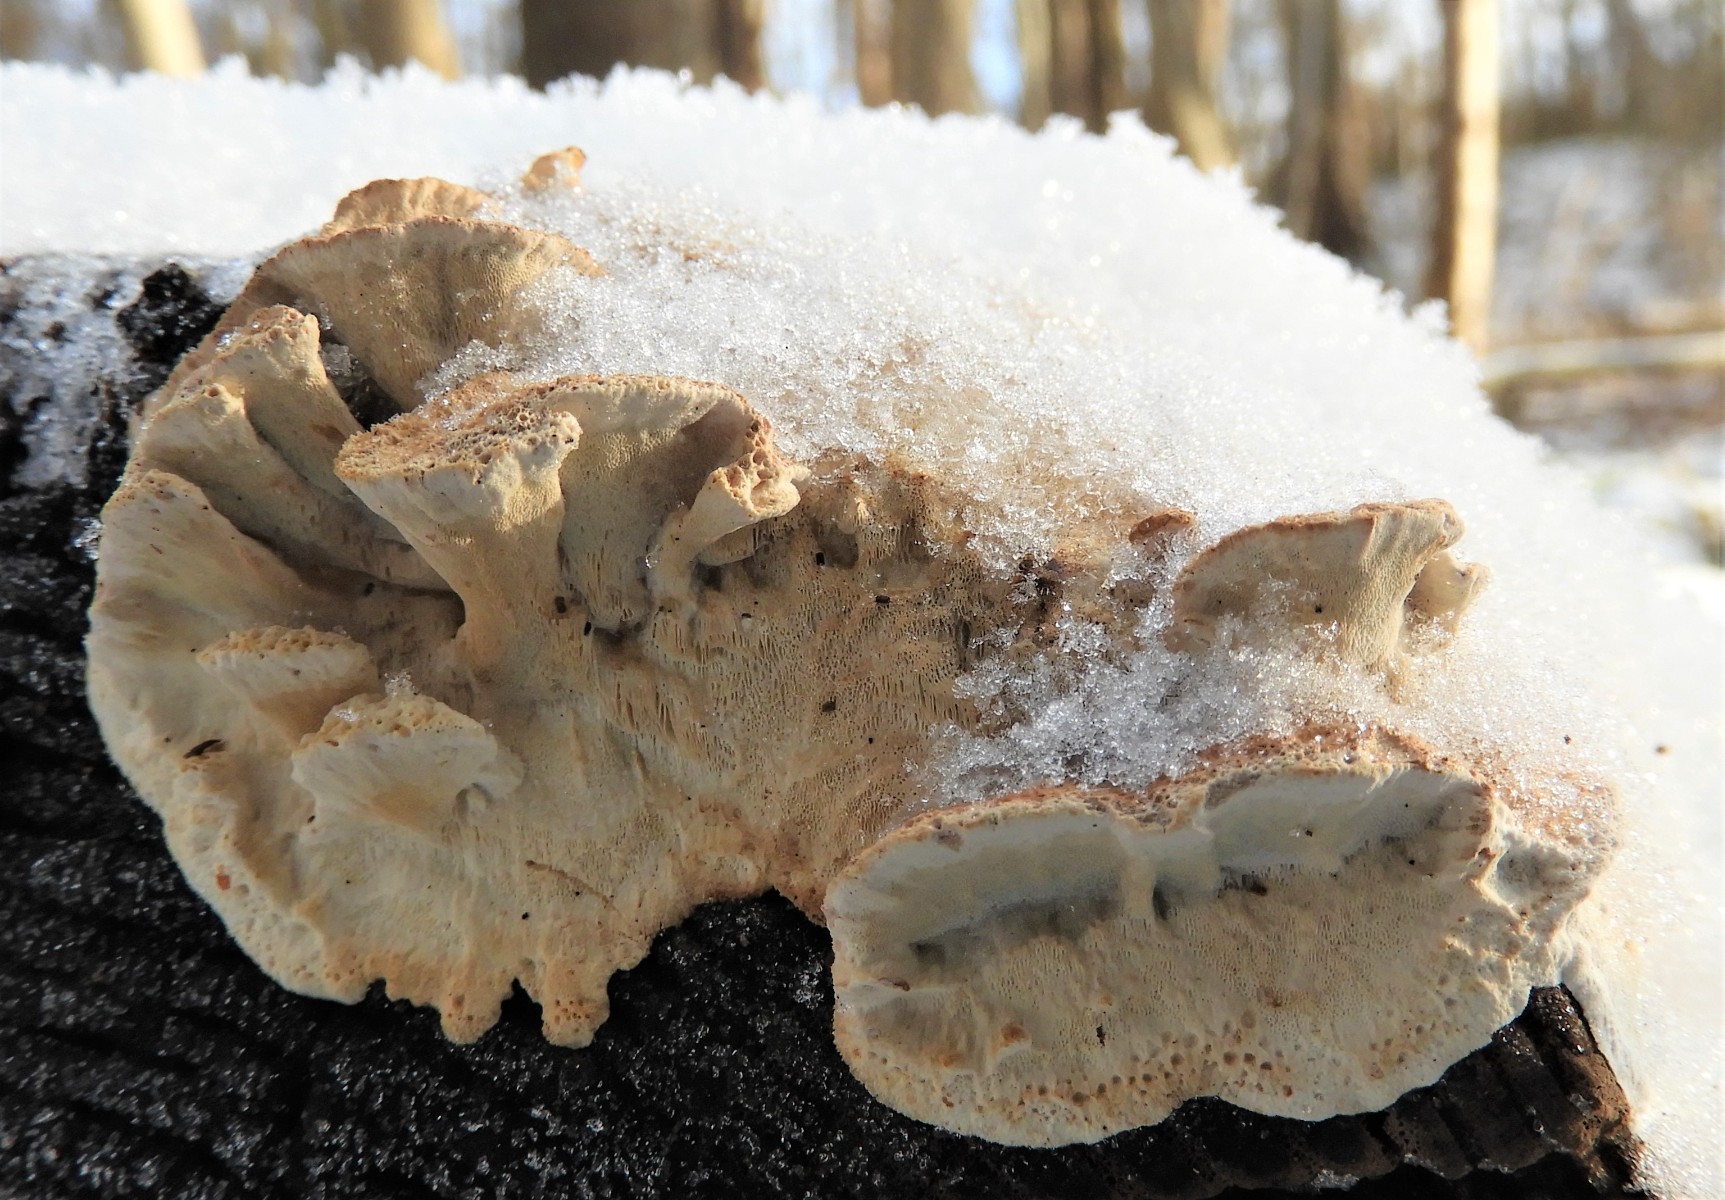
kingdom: Fungi
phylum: Basidiomycota
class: Agaricomycetes
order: Polyporales
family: Phanerochaetaceae
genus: Bjerkandera
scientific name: Bjerkandera fumosa
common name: grågul sodporesvamp
